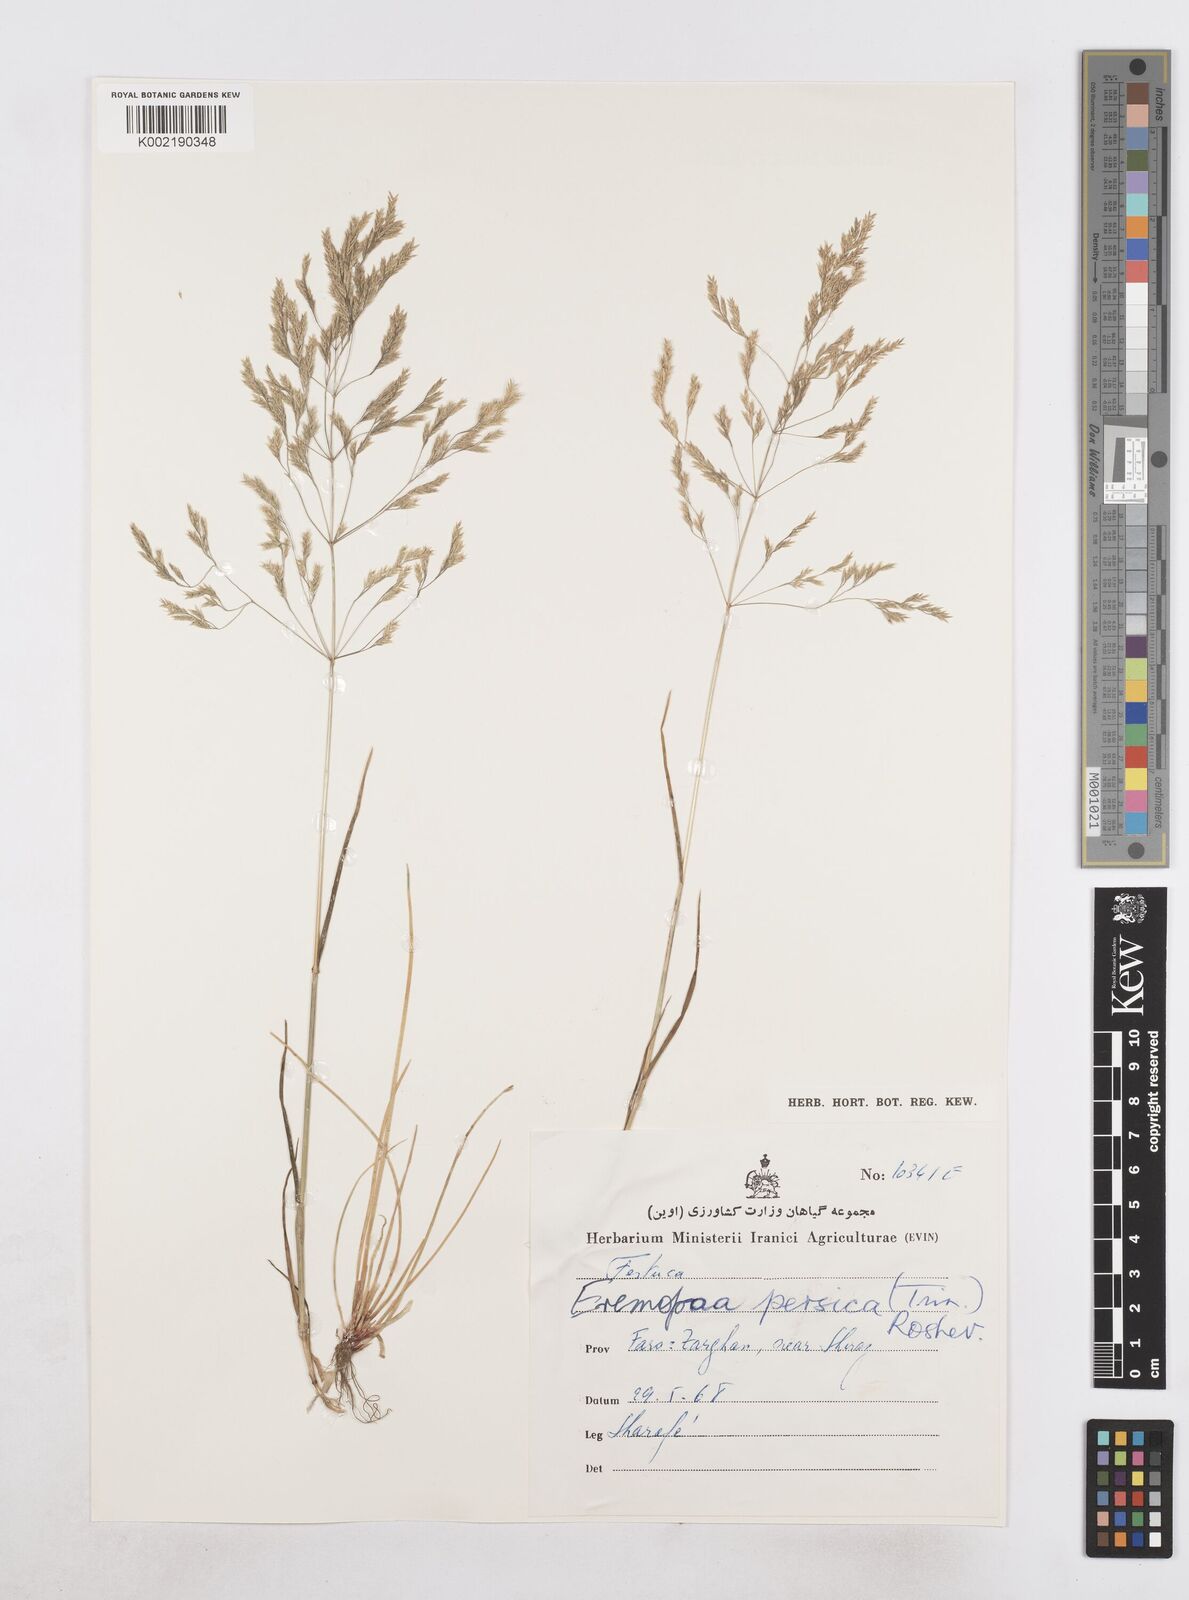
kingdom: Plantae
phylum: Tracheophyta
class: Liliopsida
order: Poales
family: Poaceae
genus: Poa
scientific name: Poa persica
